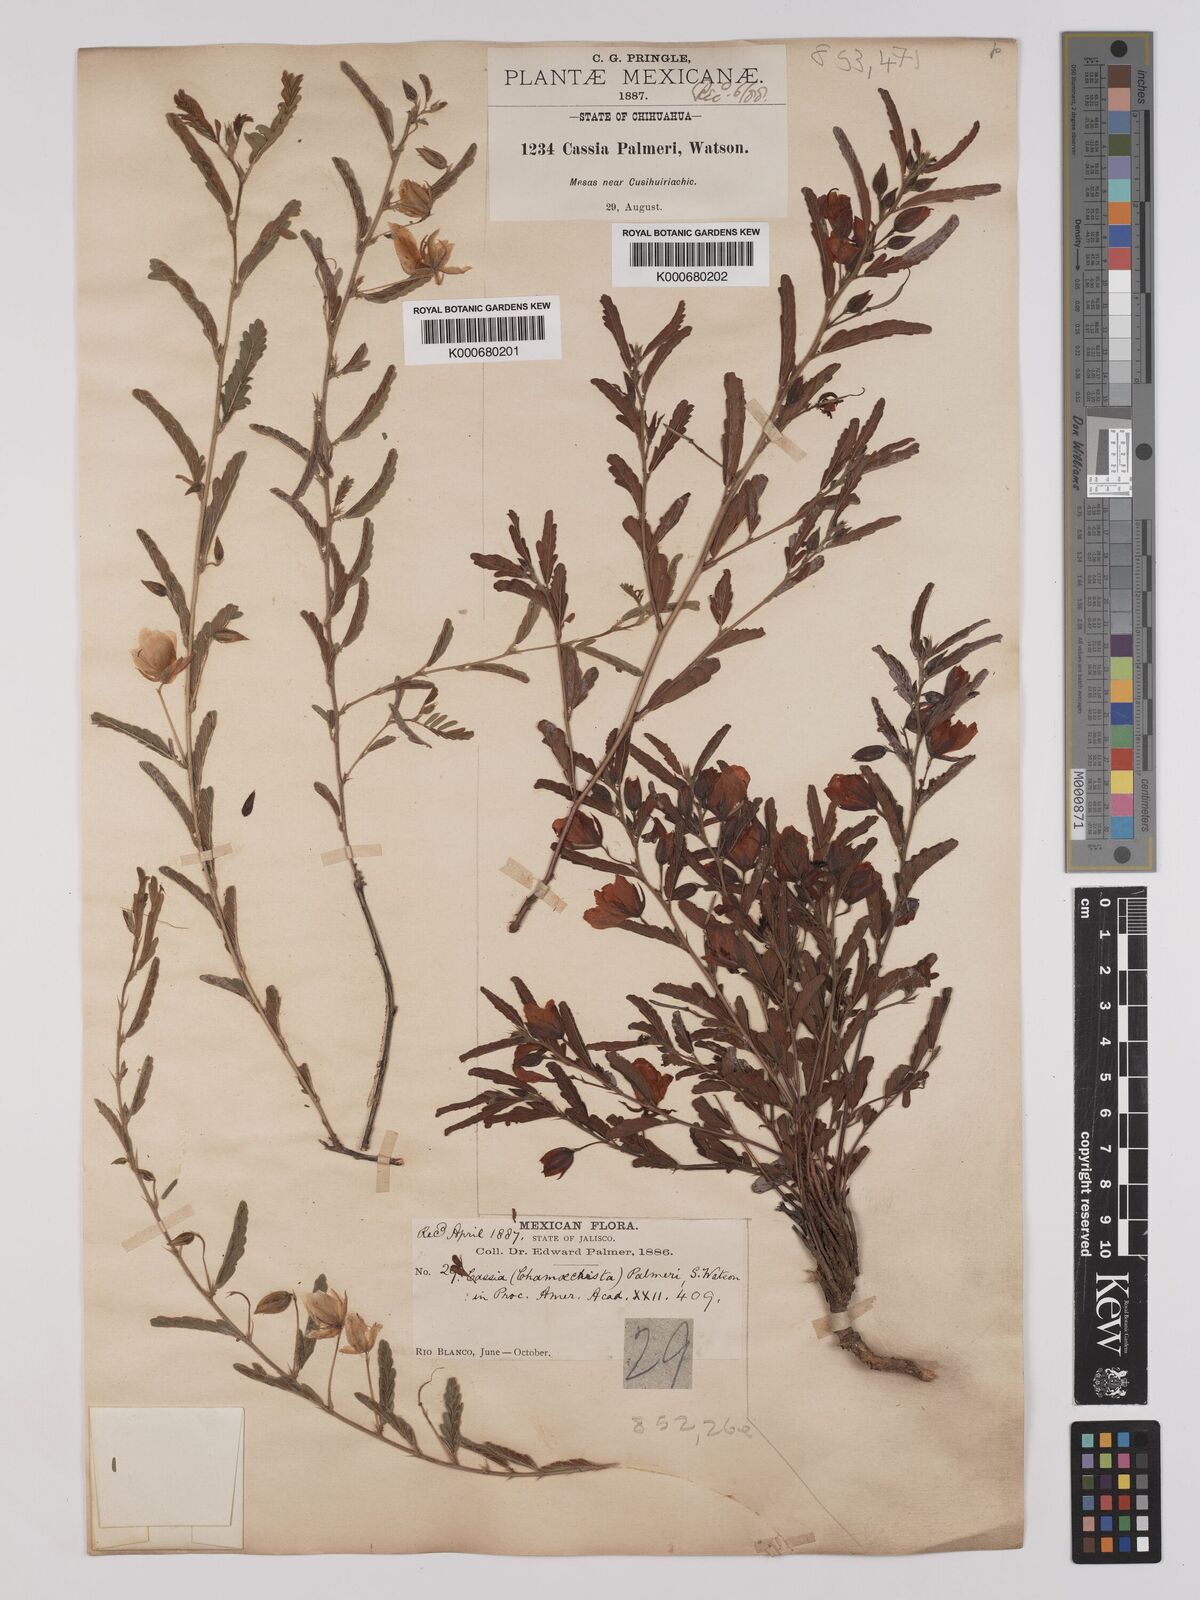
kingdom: Plantae
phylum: Tracheophyta
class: Magnoliopsida
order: Fabales
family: Fabaceae
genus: Chamaecrista
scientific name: Chamaecrista serpens
